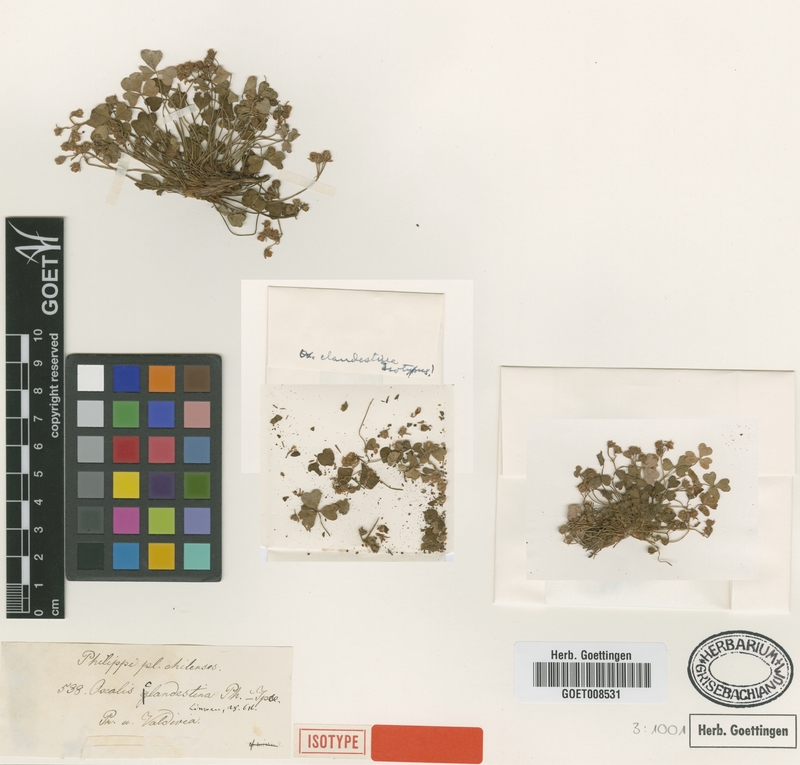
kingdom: Plantae
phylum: Tracheophyta
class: Magnoliopsida
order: Oxalidales
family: Oxalidaceae
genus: Oxalis
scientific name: Oxalis clandestina
